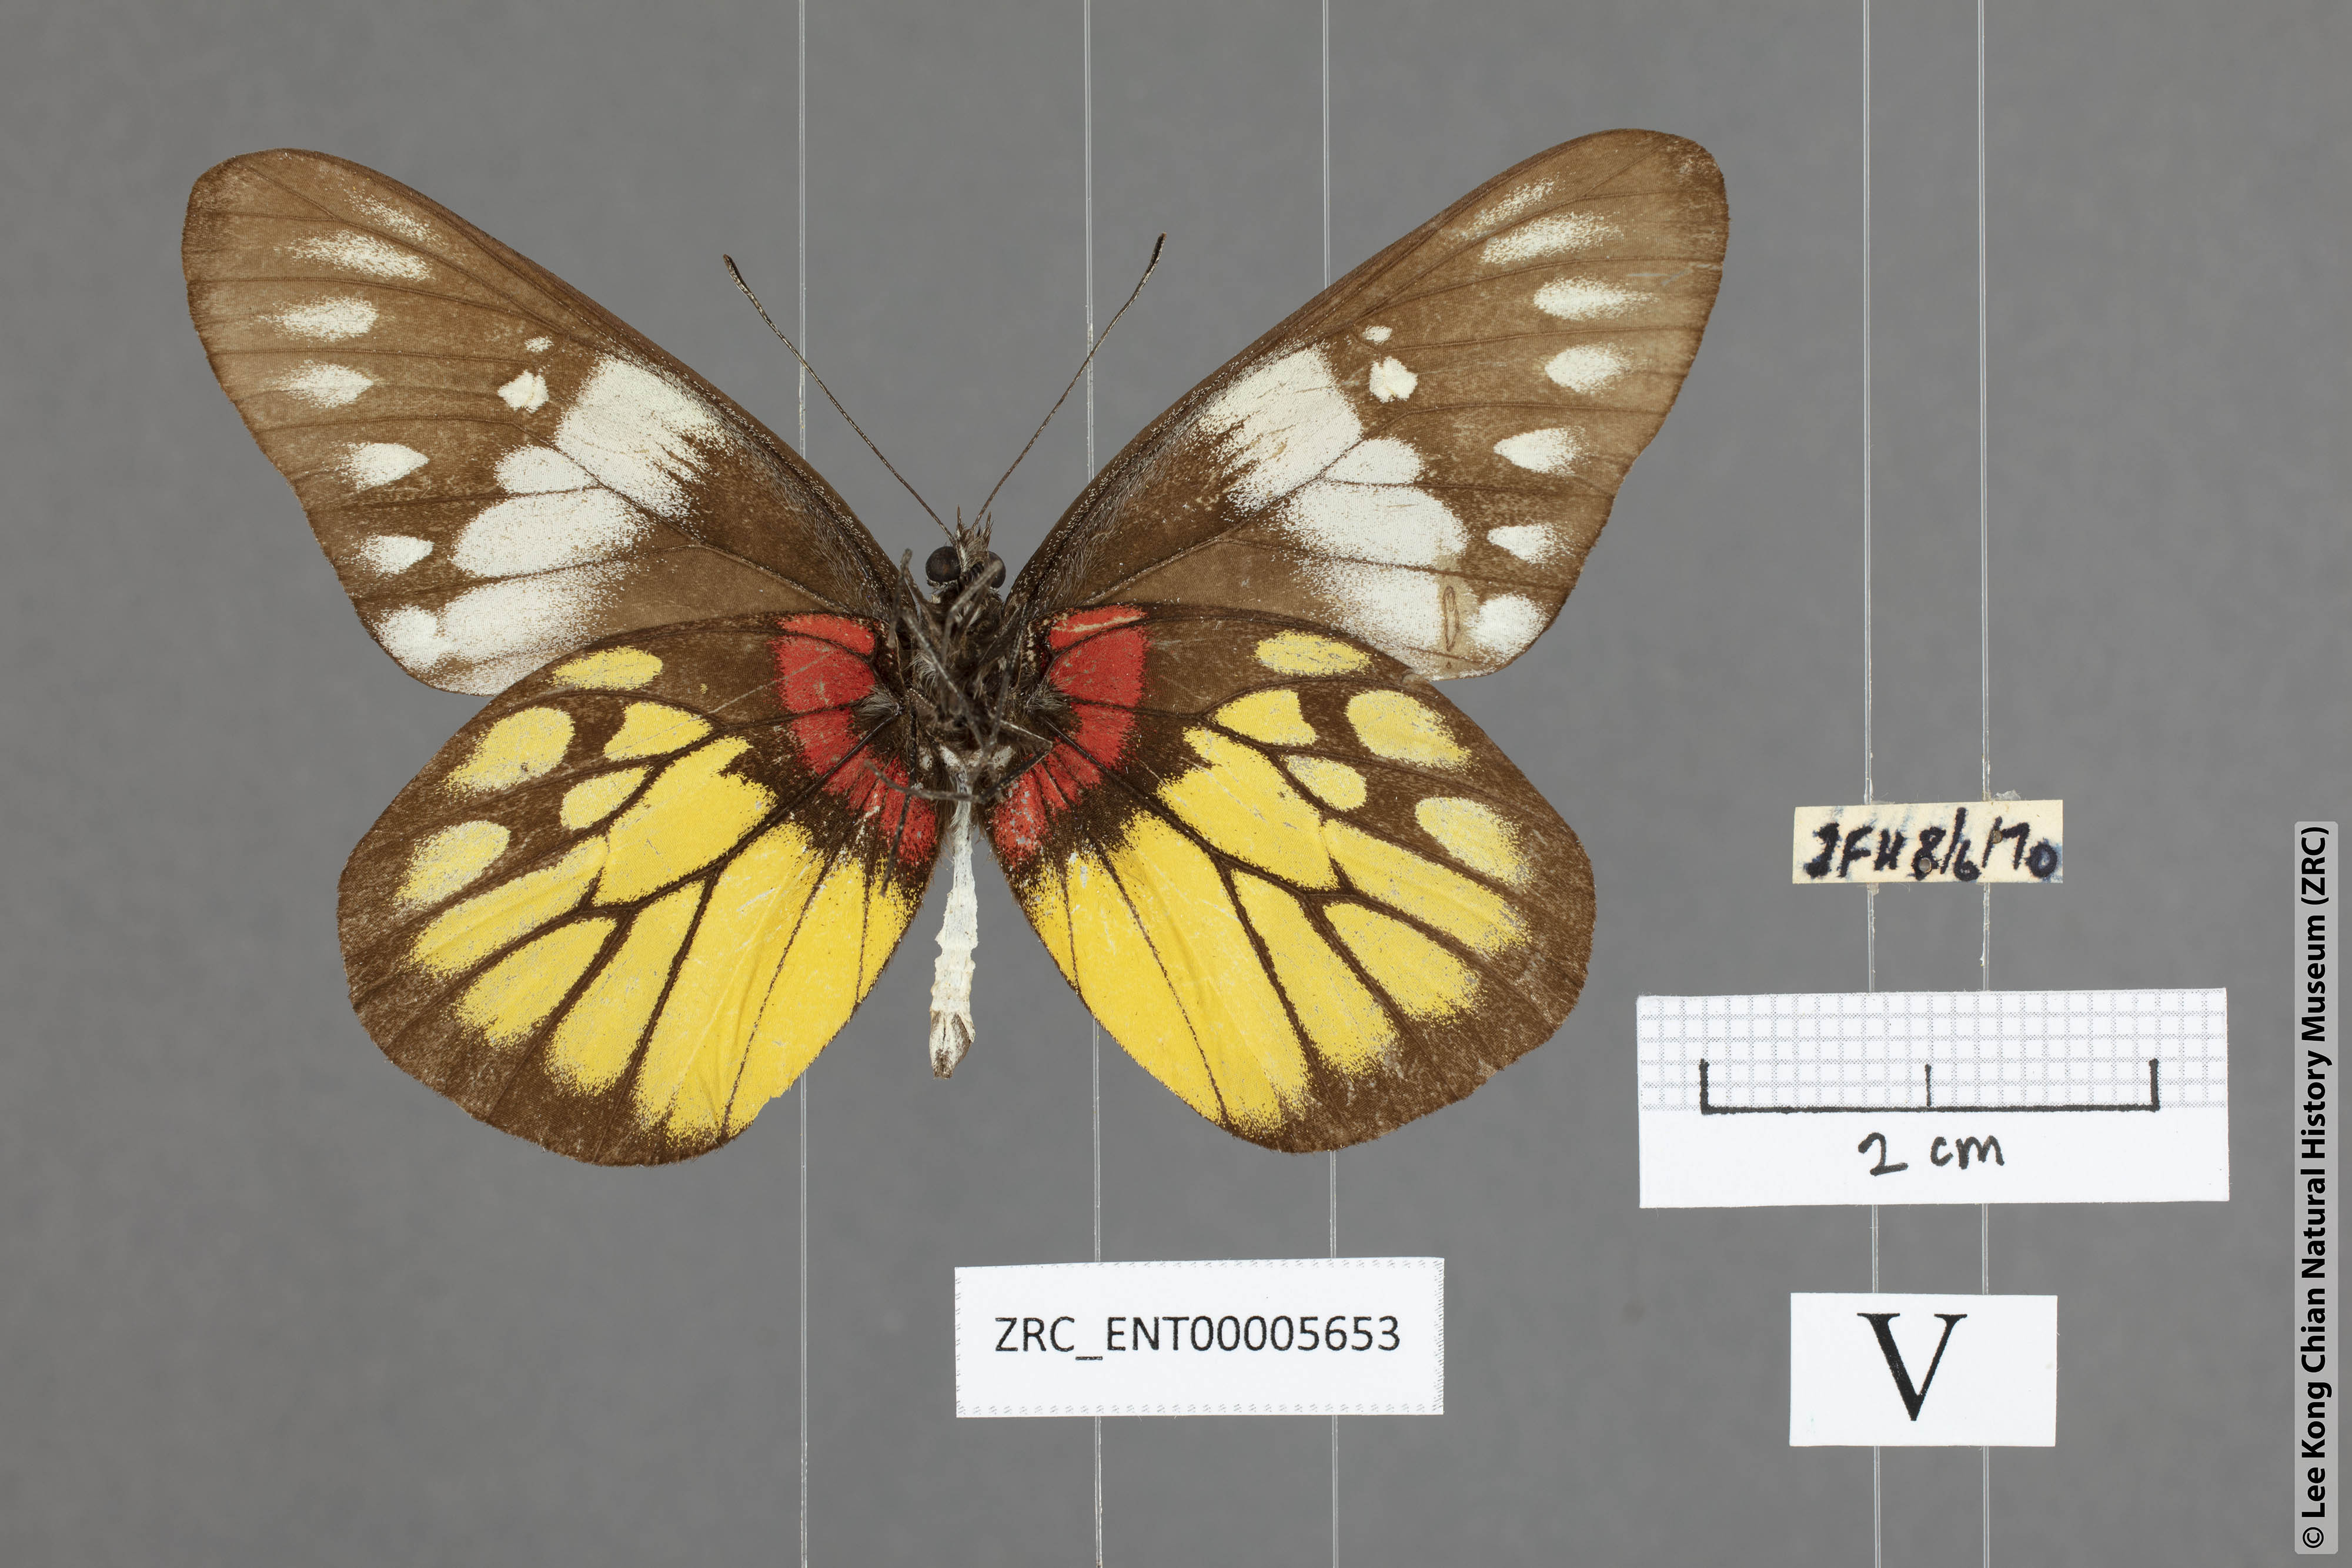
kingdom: Animalia
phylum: Arthropoda
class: Insecta
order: Lepidoptera
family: Pieridae
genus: Delias
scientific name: Delias pasithoe
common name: Red-base jezebel
